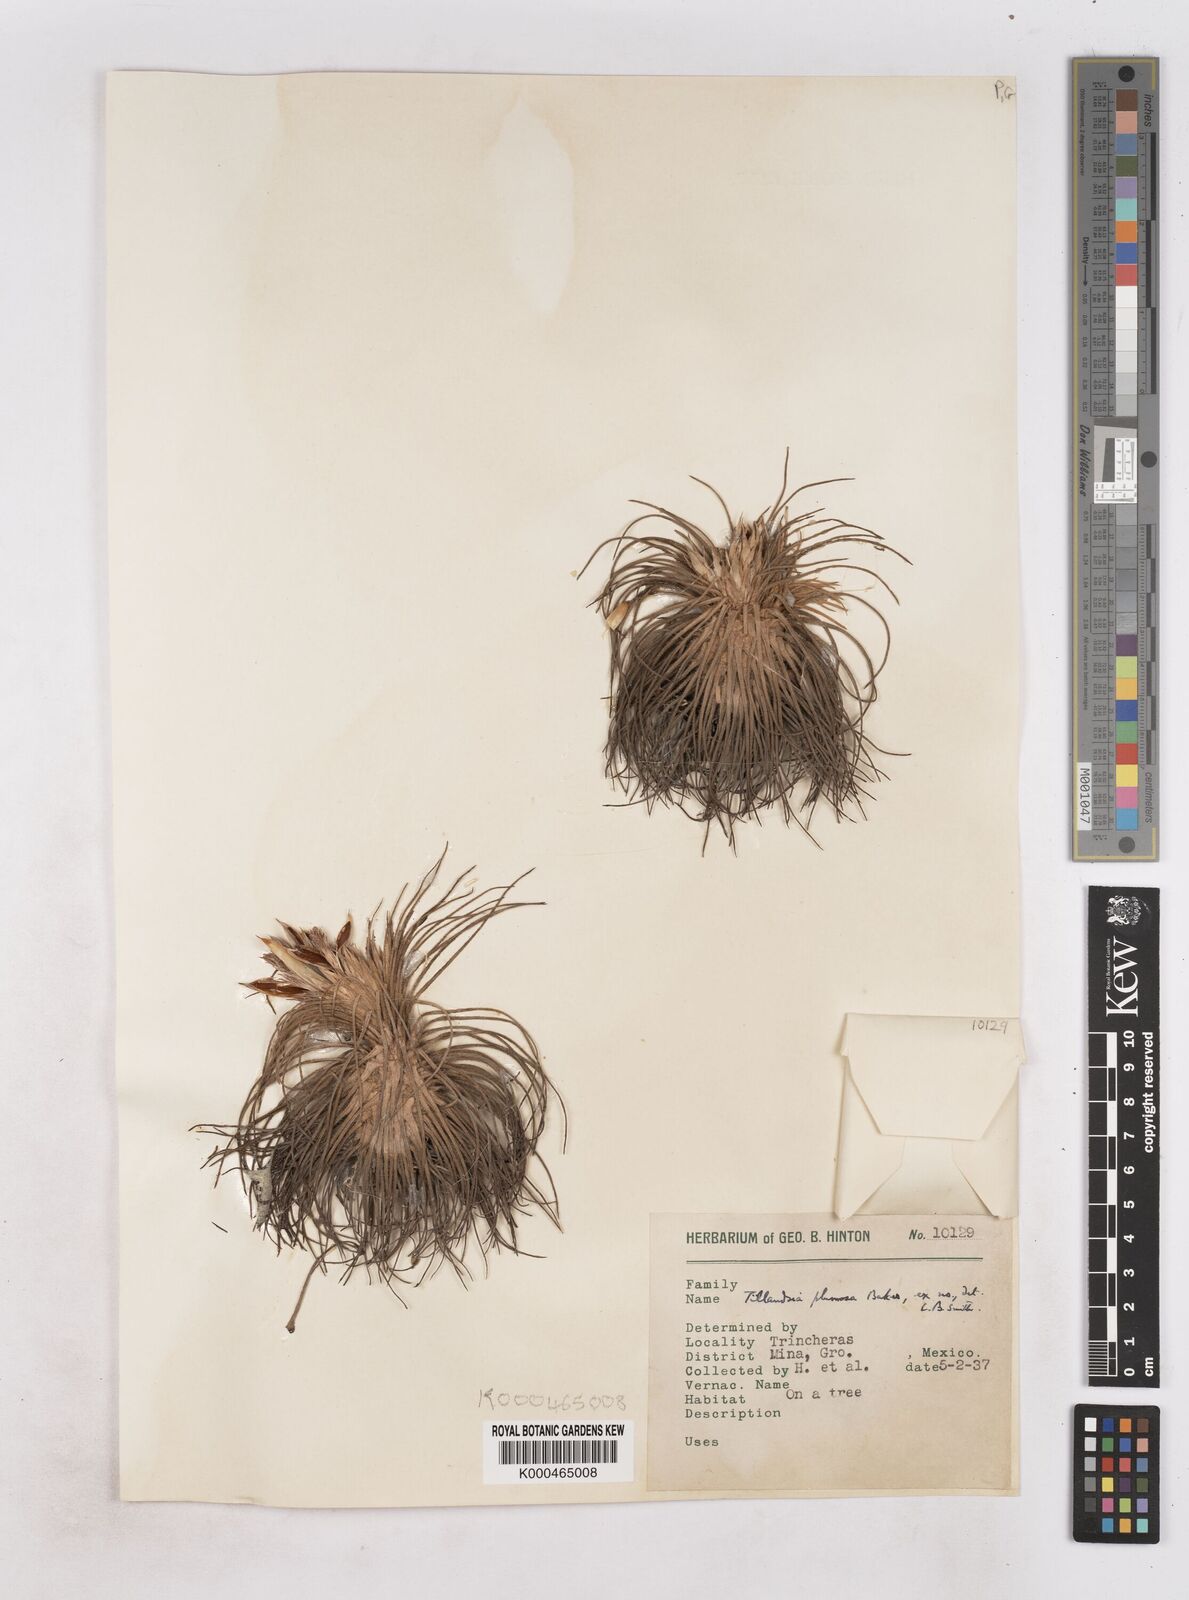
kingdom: Plantae
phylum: Tracheophyta
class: Liliopsida
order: Poales
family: Bromeliaceae
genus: Tillandsia
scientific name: Tillandsia plumosa
